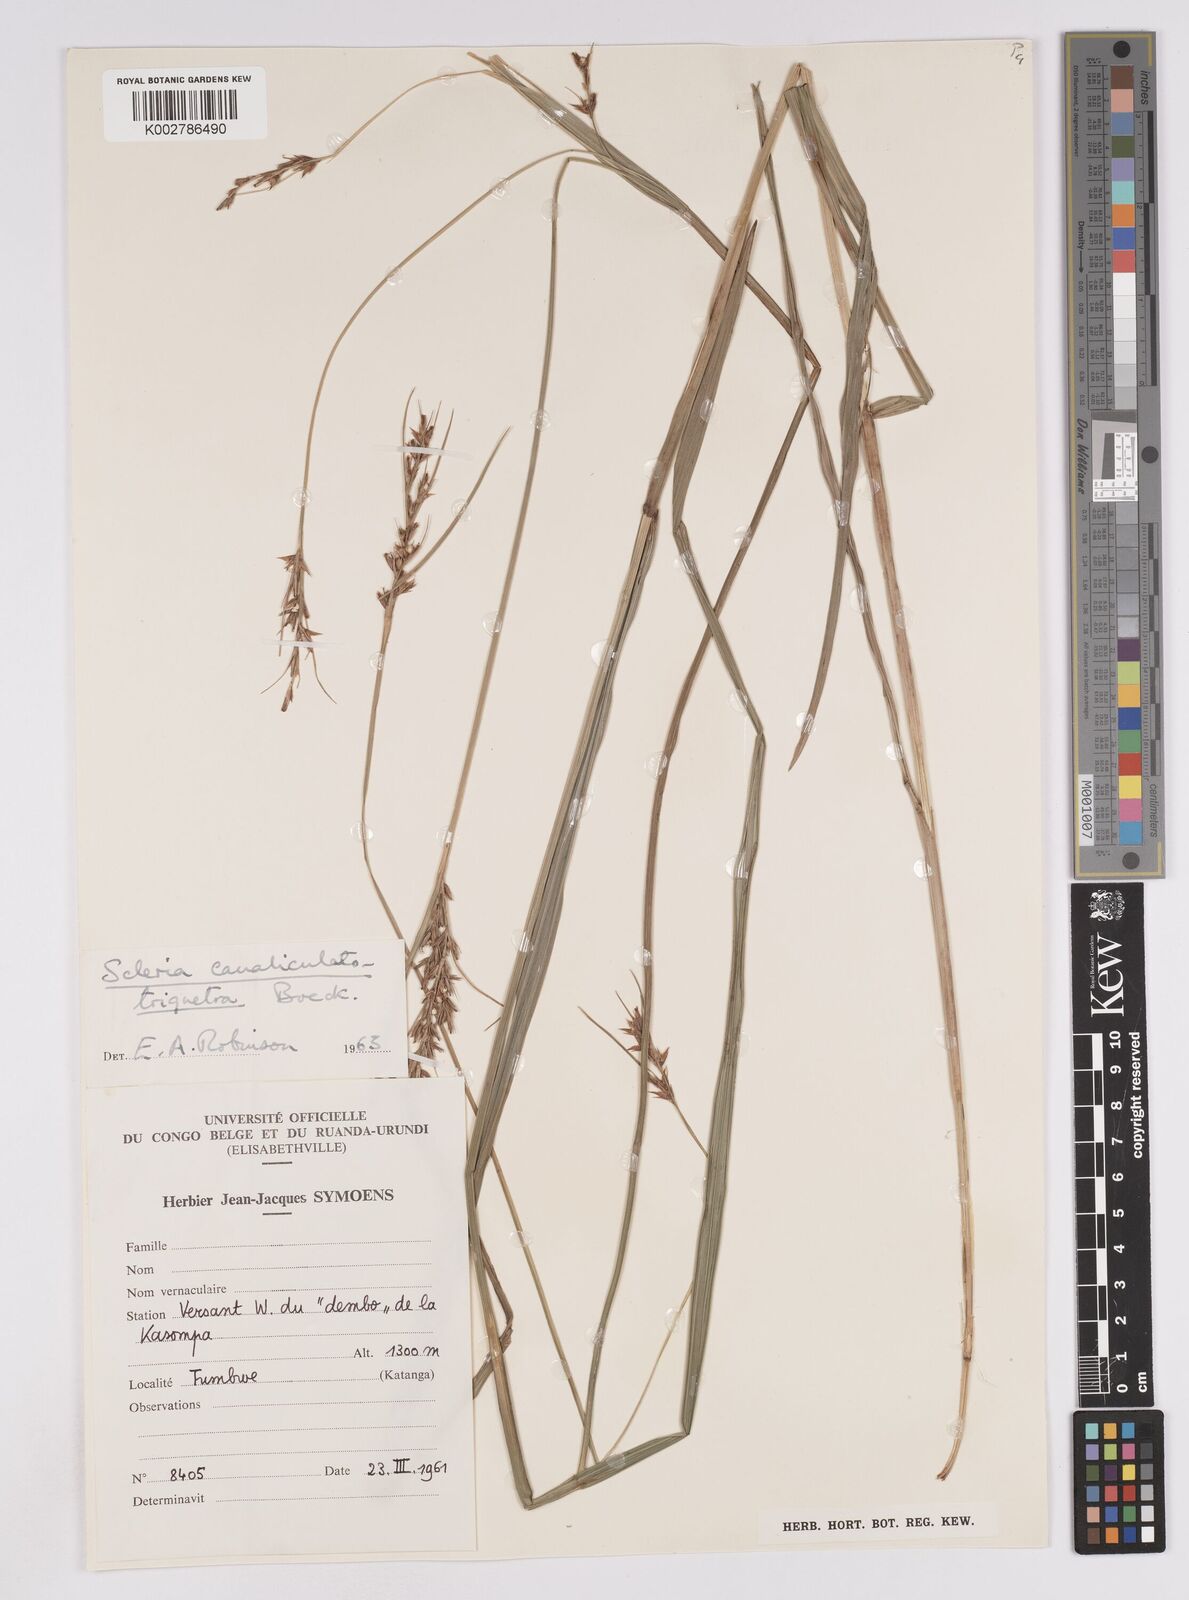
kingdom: Plantae
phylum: Tracheophyta
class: Liliopsida
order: Poales
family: Cyperaceae
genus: Scleria
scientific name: Scleria lagoensis
